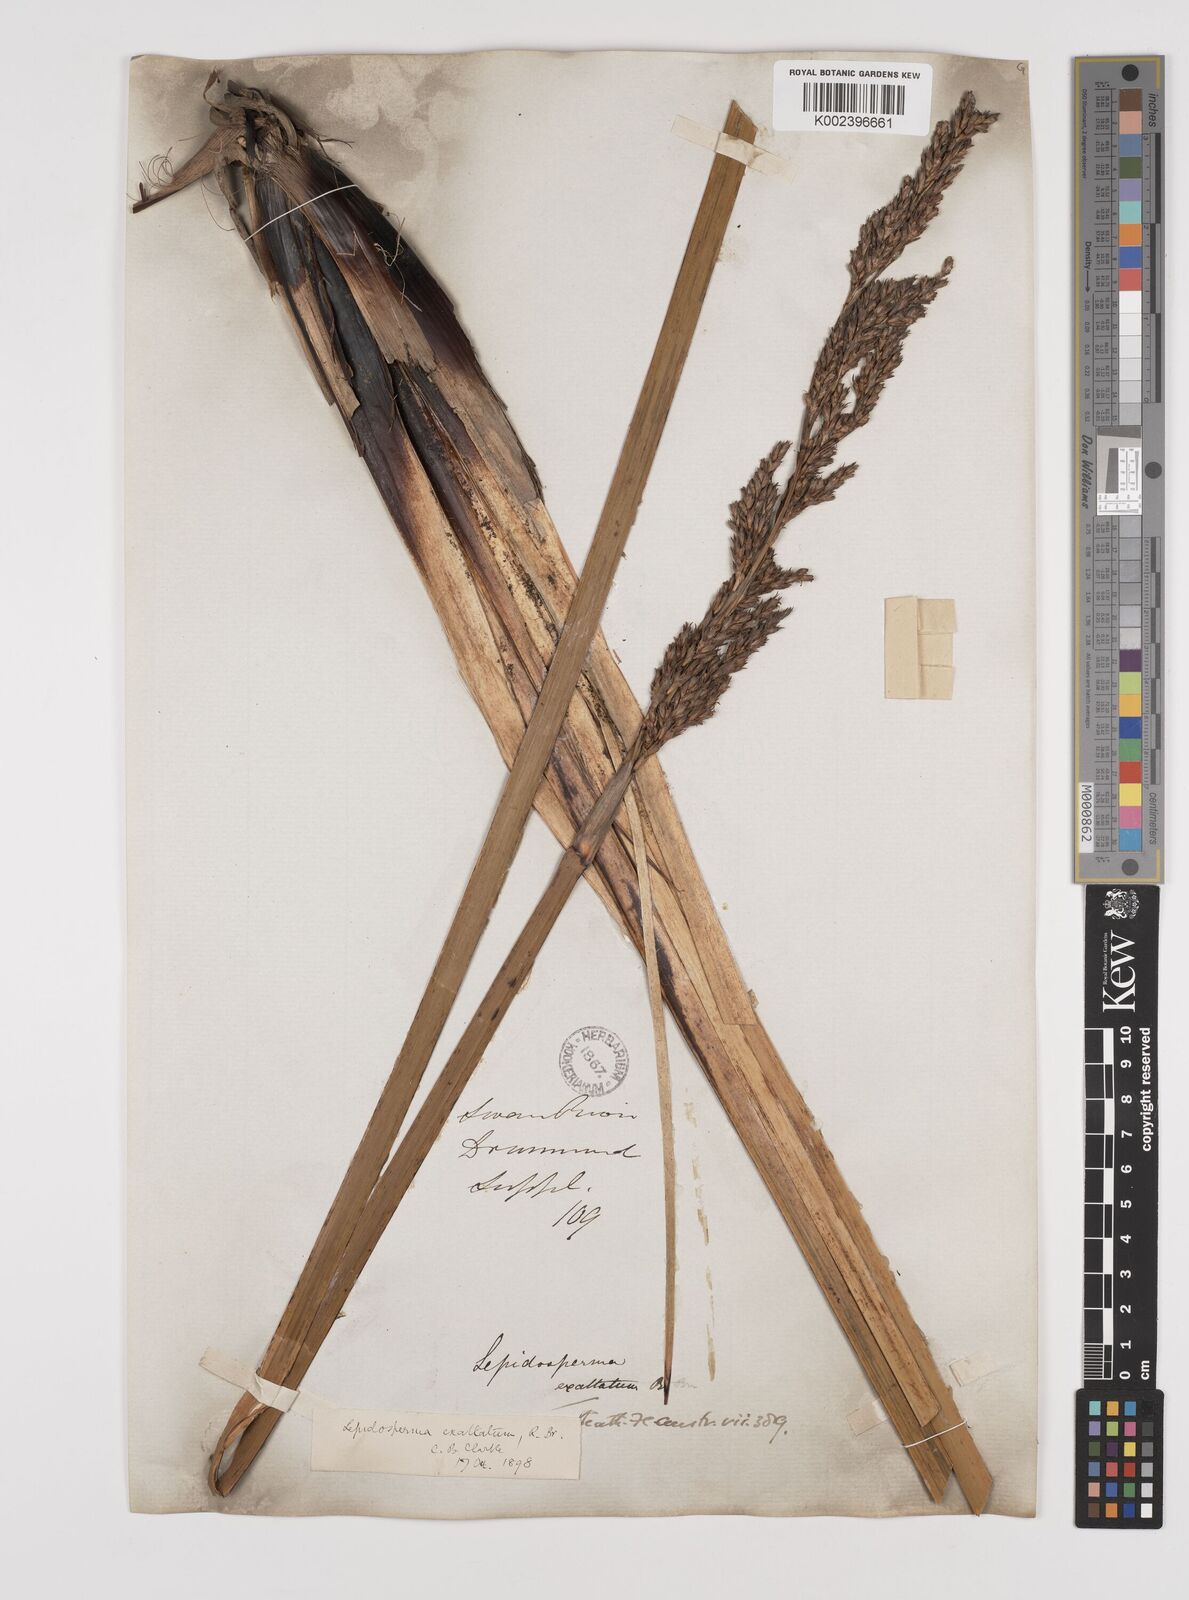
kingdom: Plantae
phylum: Tracheophyta
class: Liliopsida
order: Poales
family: Cyperaceae
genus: Lepidosperma
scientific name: Lepidosperma longitudinale
